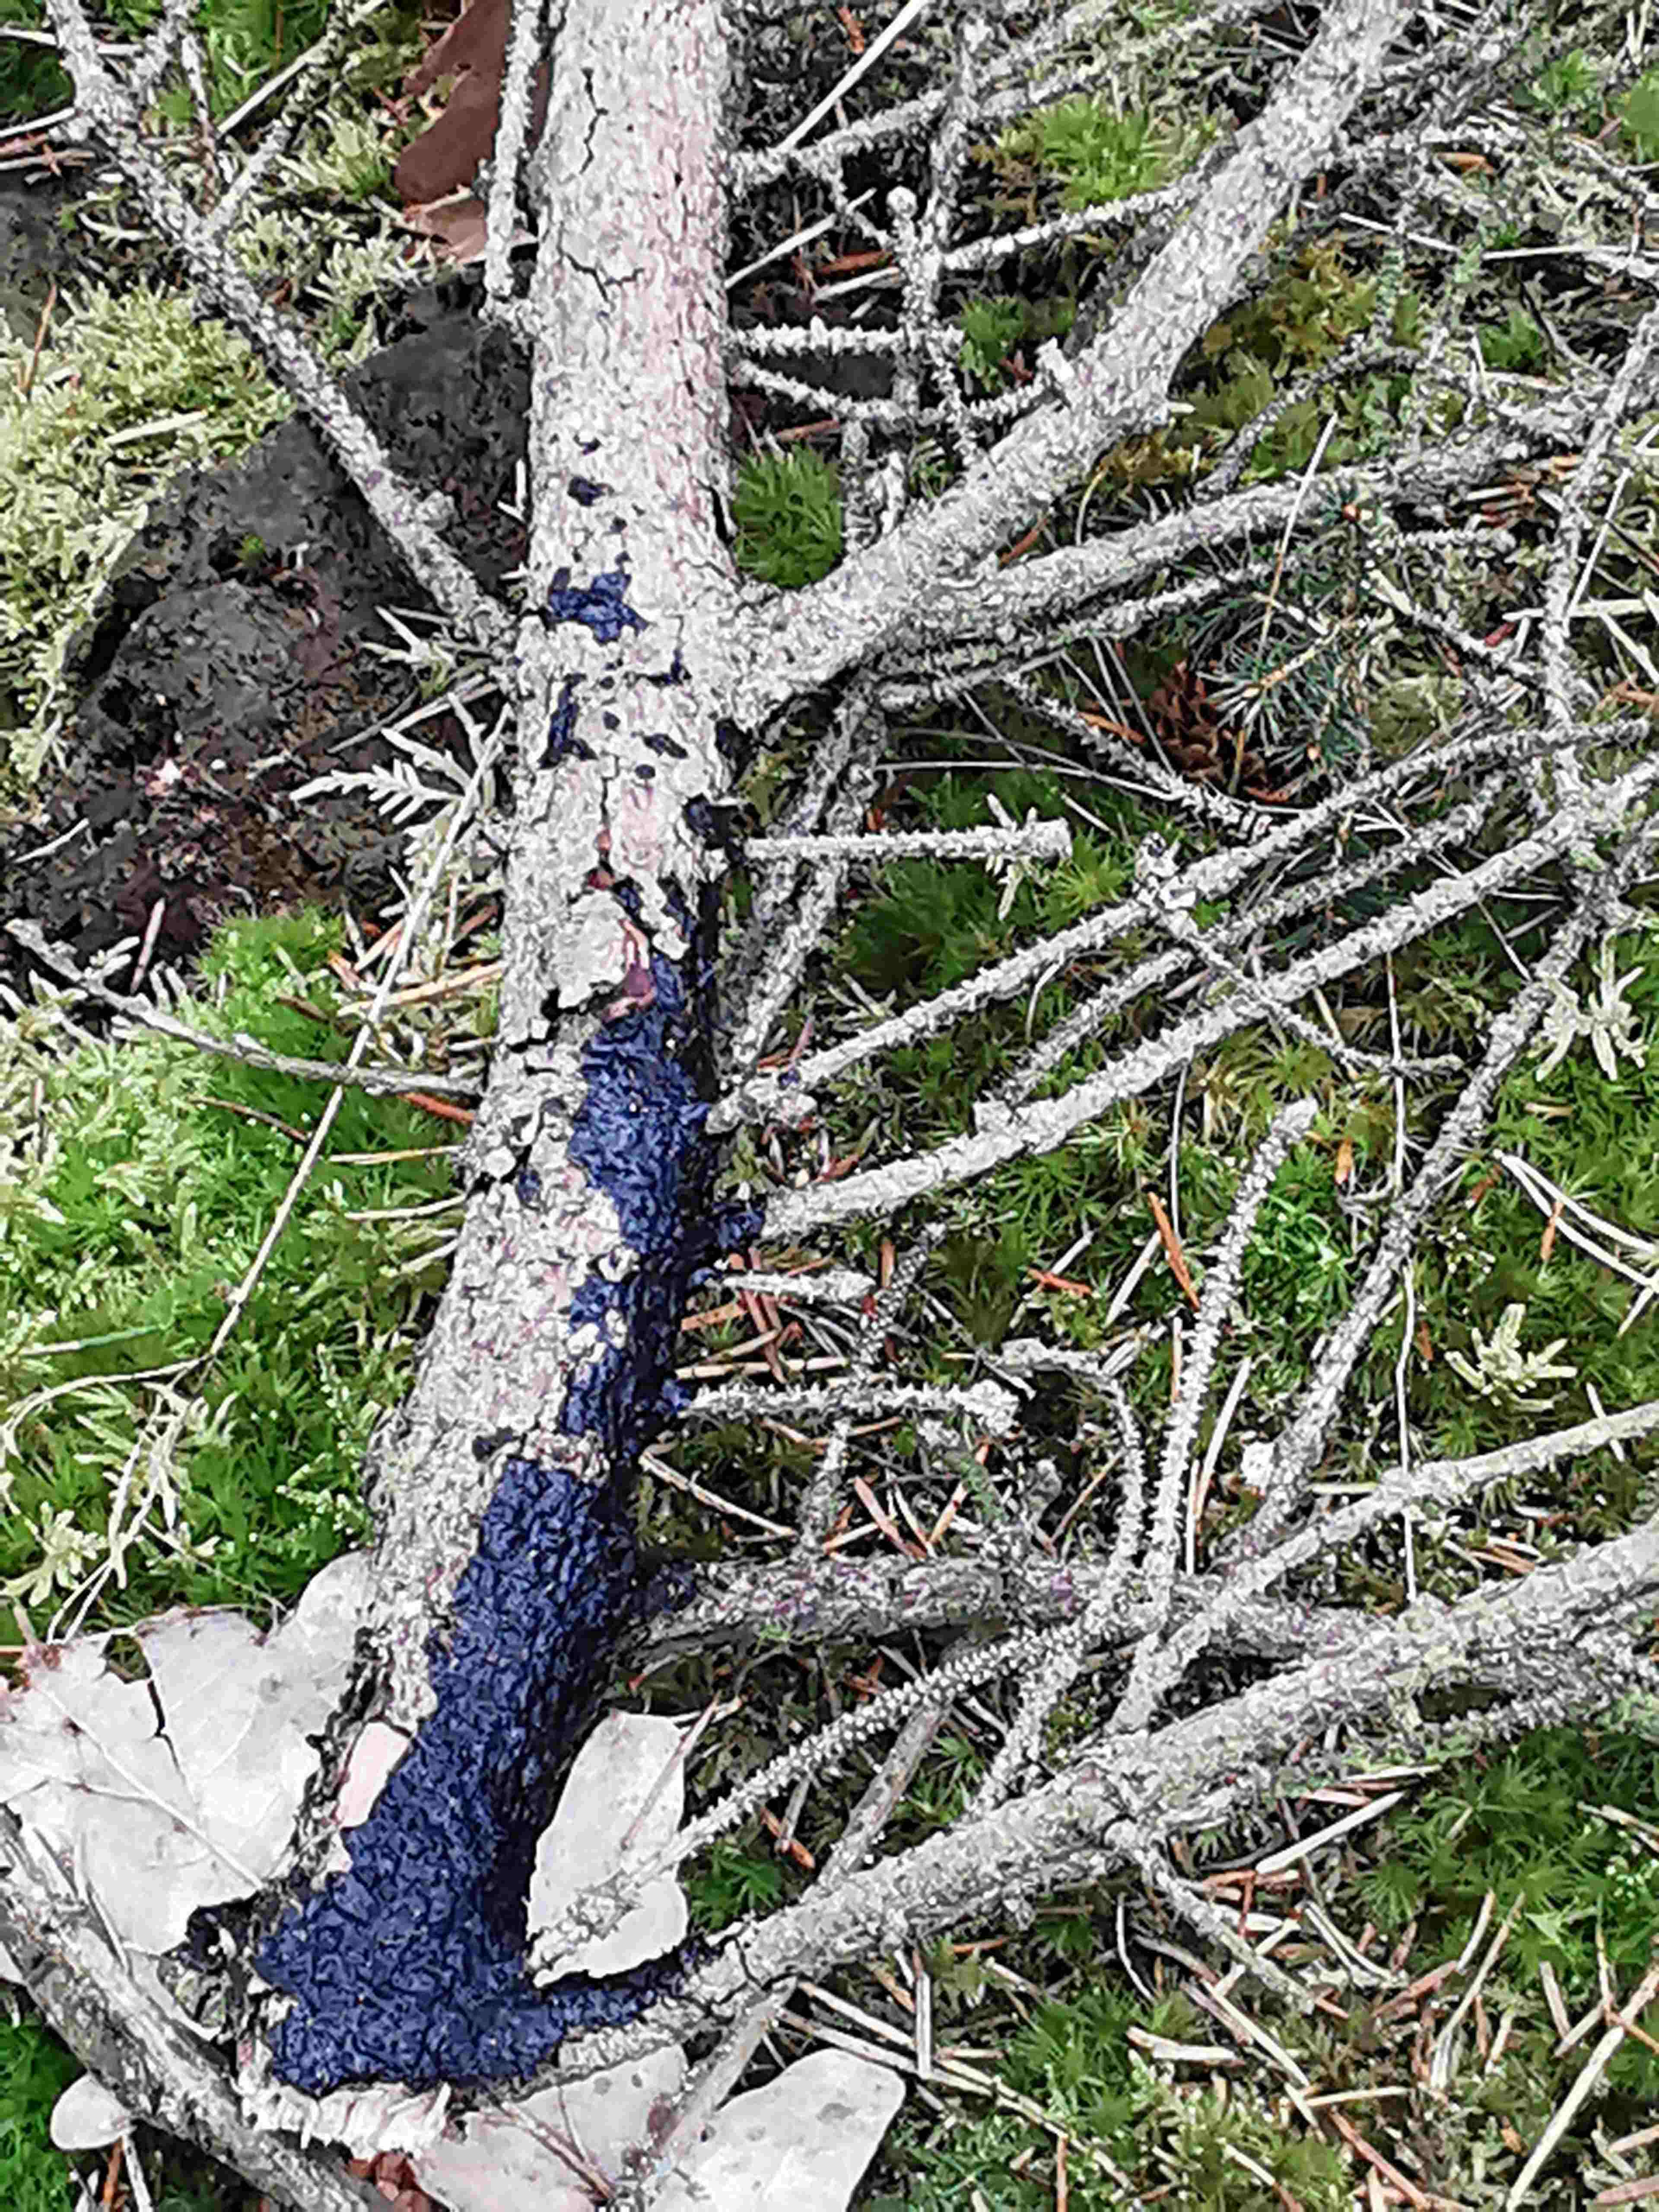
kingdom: Fungi
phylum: Basidiomycota
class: Agaricomycetes
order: Auriculariales
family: Auriculariaceae
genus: Exidia
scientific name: Exidia pithya
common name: gran-bævretop
